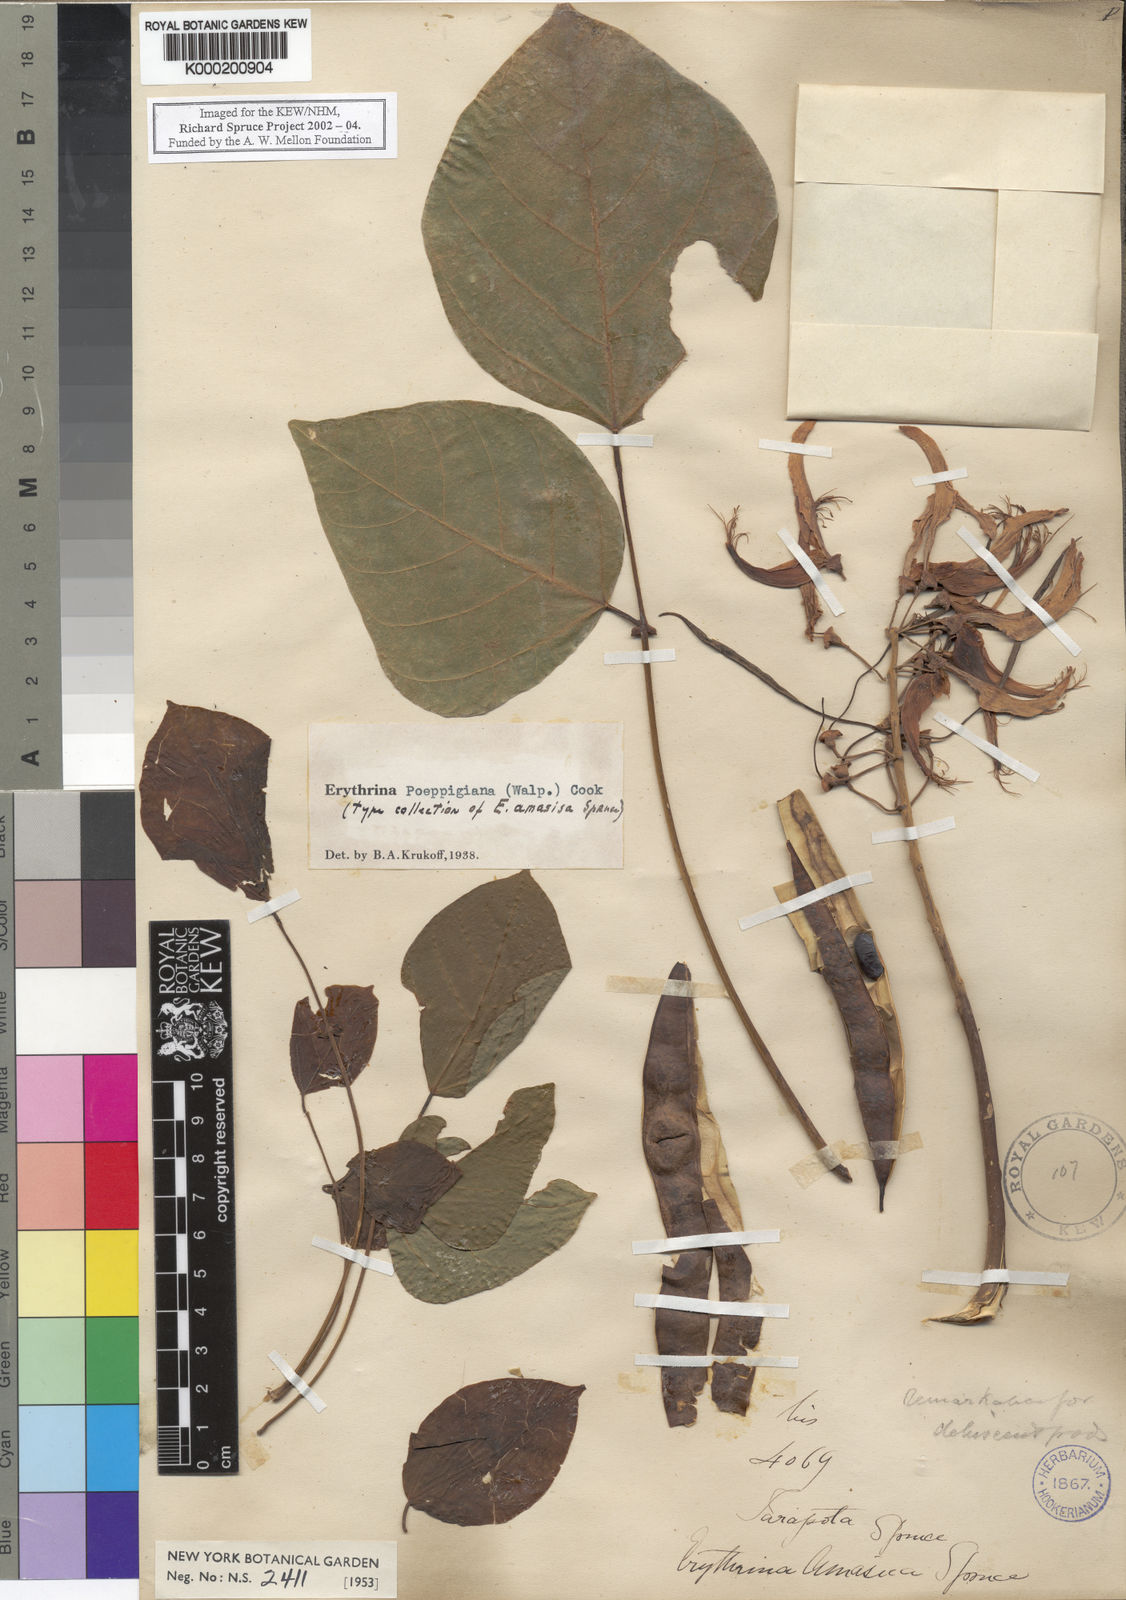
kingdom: Plantae
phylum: Tracheophyta
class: Magnoliopsida
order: Fabales
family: Fabaceae
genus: Erythrina
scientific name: Erythrina poeppigiana
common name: Coral tree
